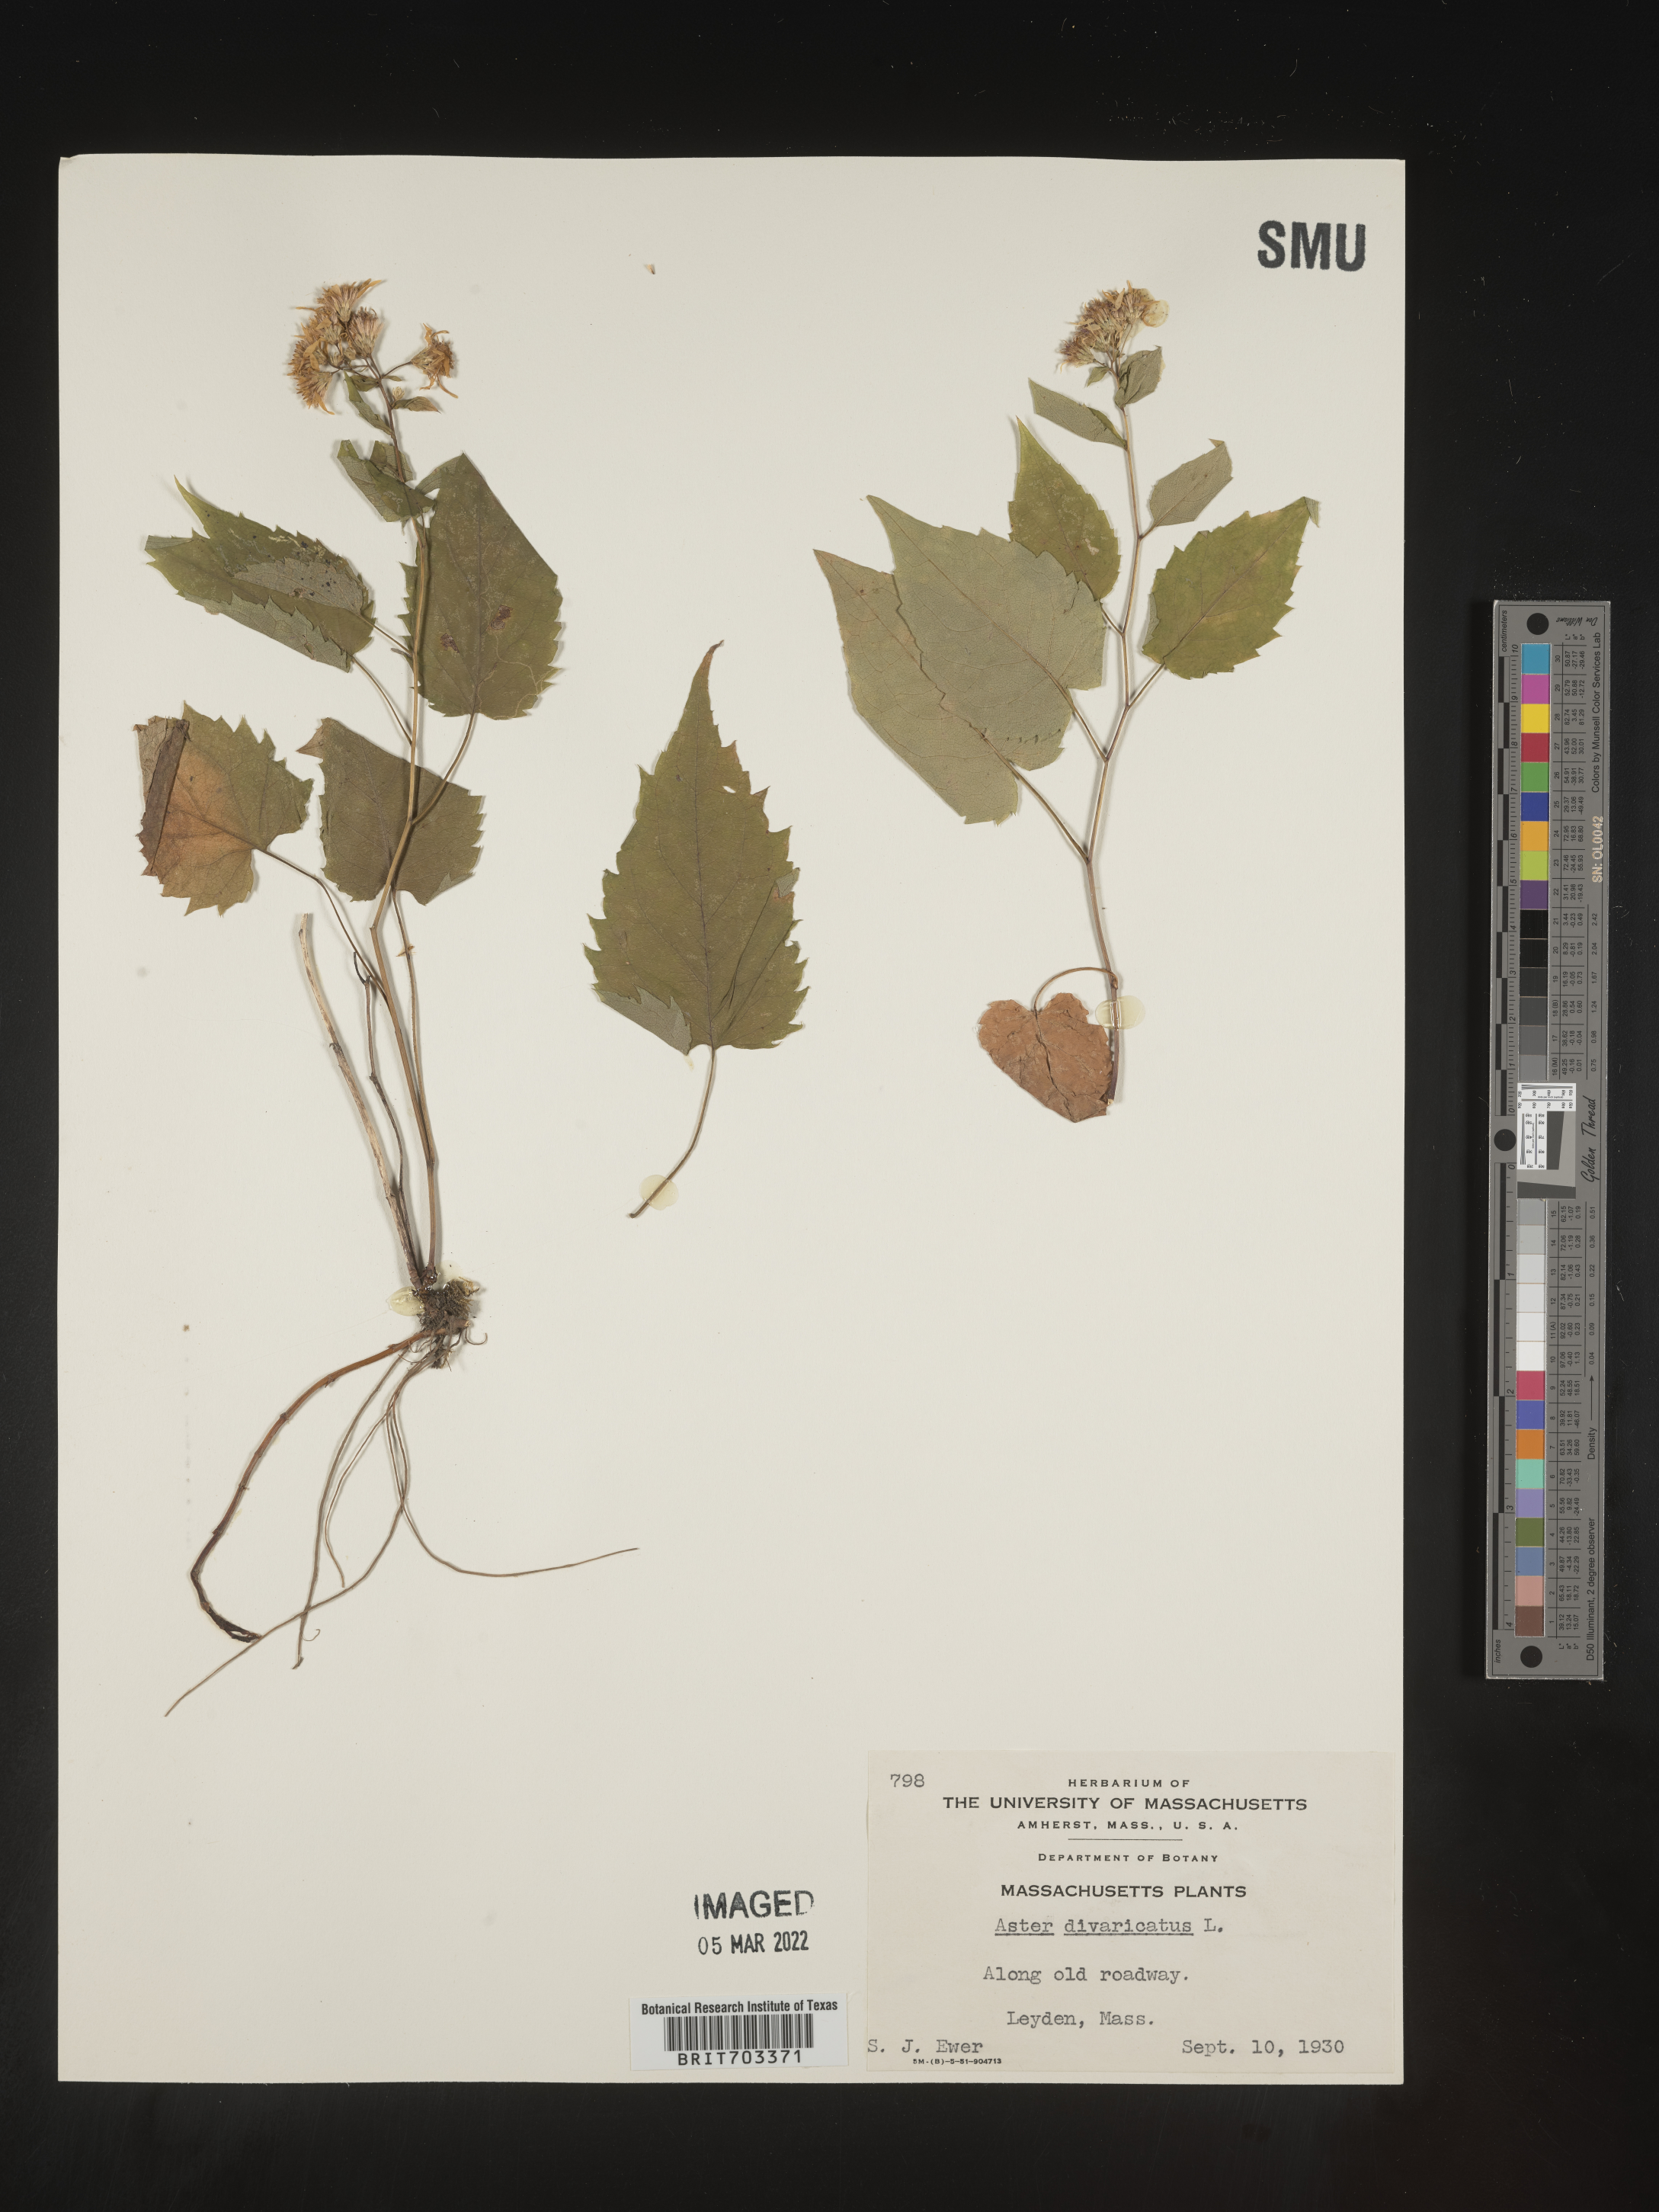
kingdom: Plantae
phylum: Tracheophyta
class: Magnoliopsida
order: Asterales
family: Asteraceae
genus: Eurybia
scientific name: Eurybia divaricata
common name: White wood aster
